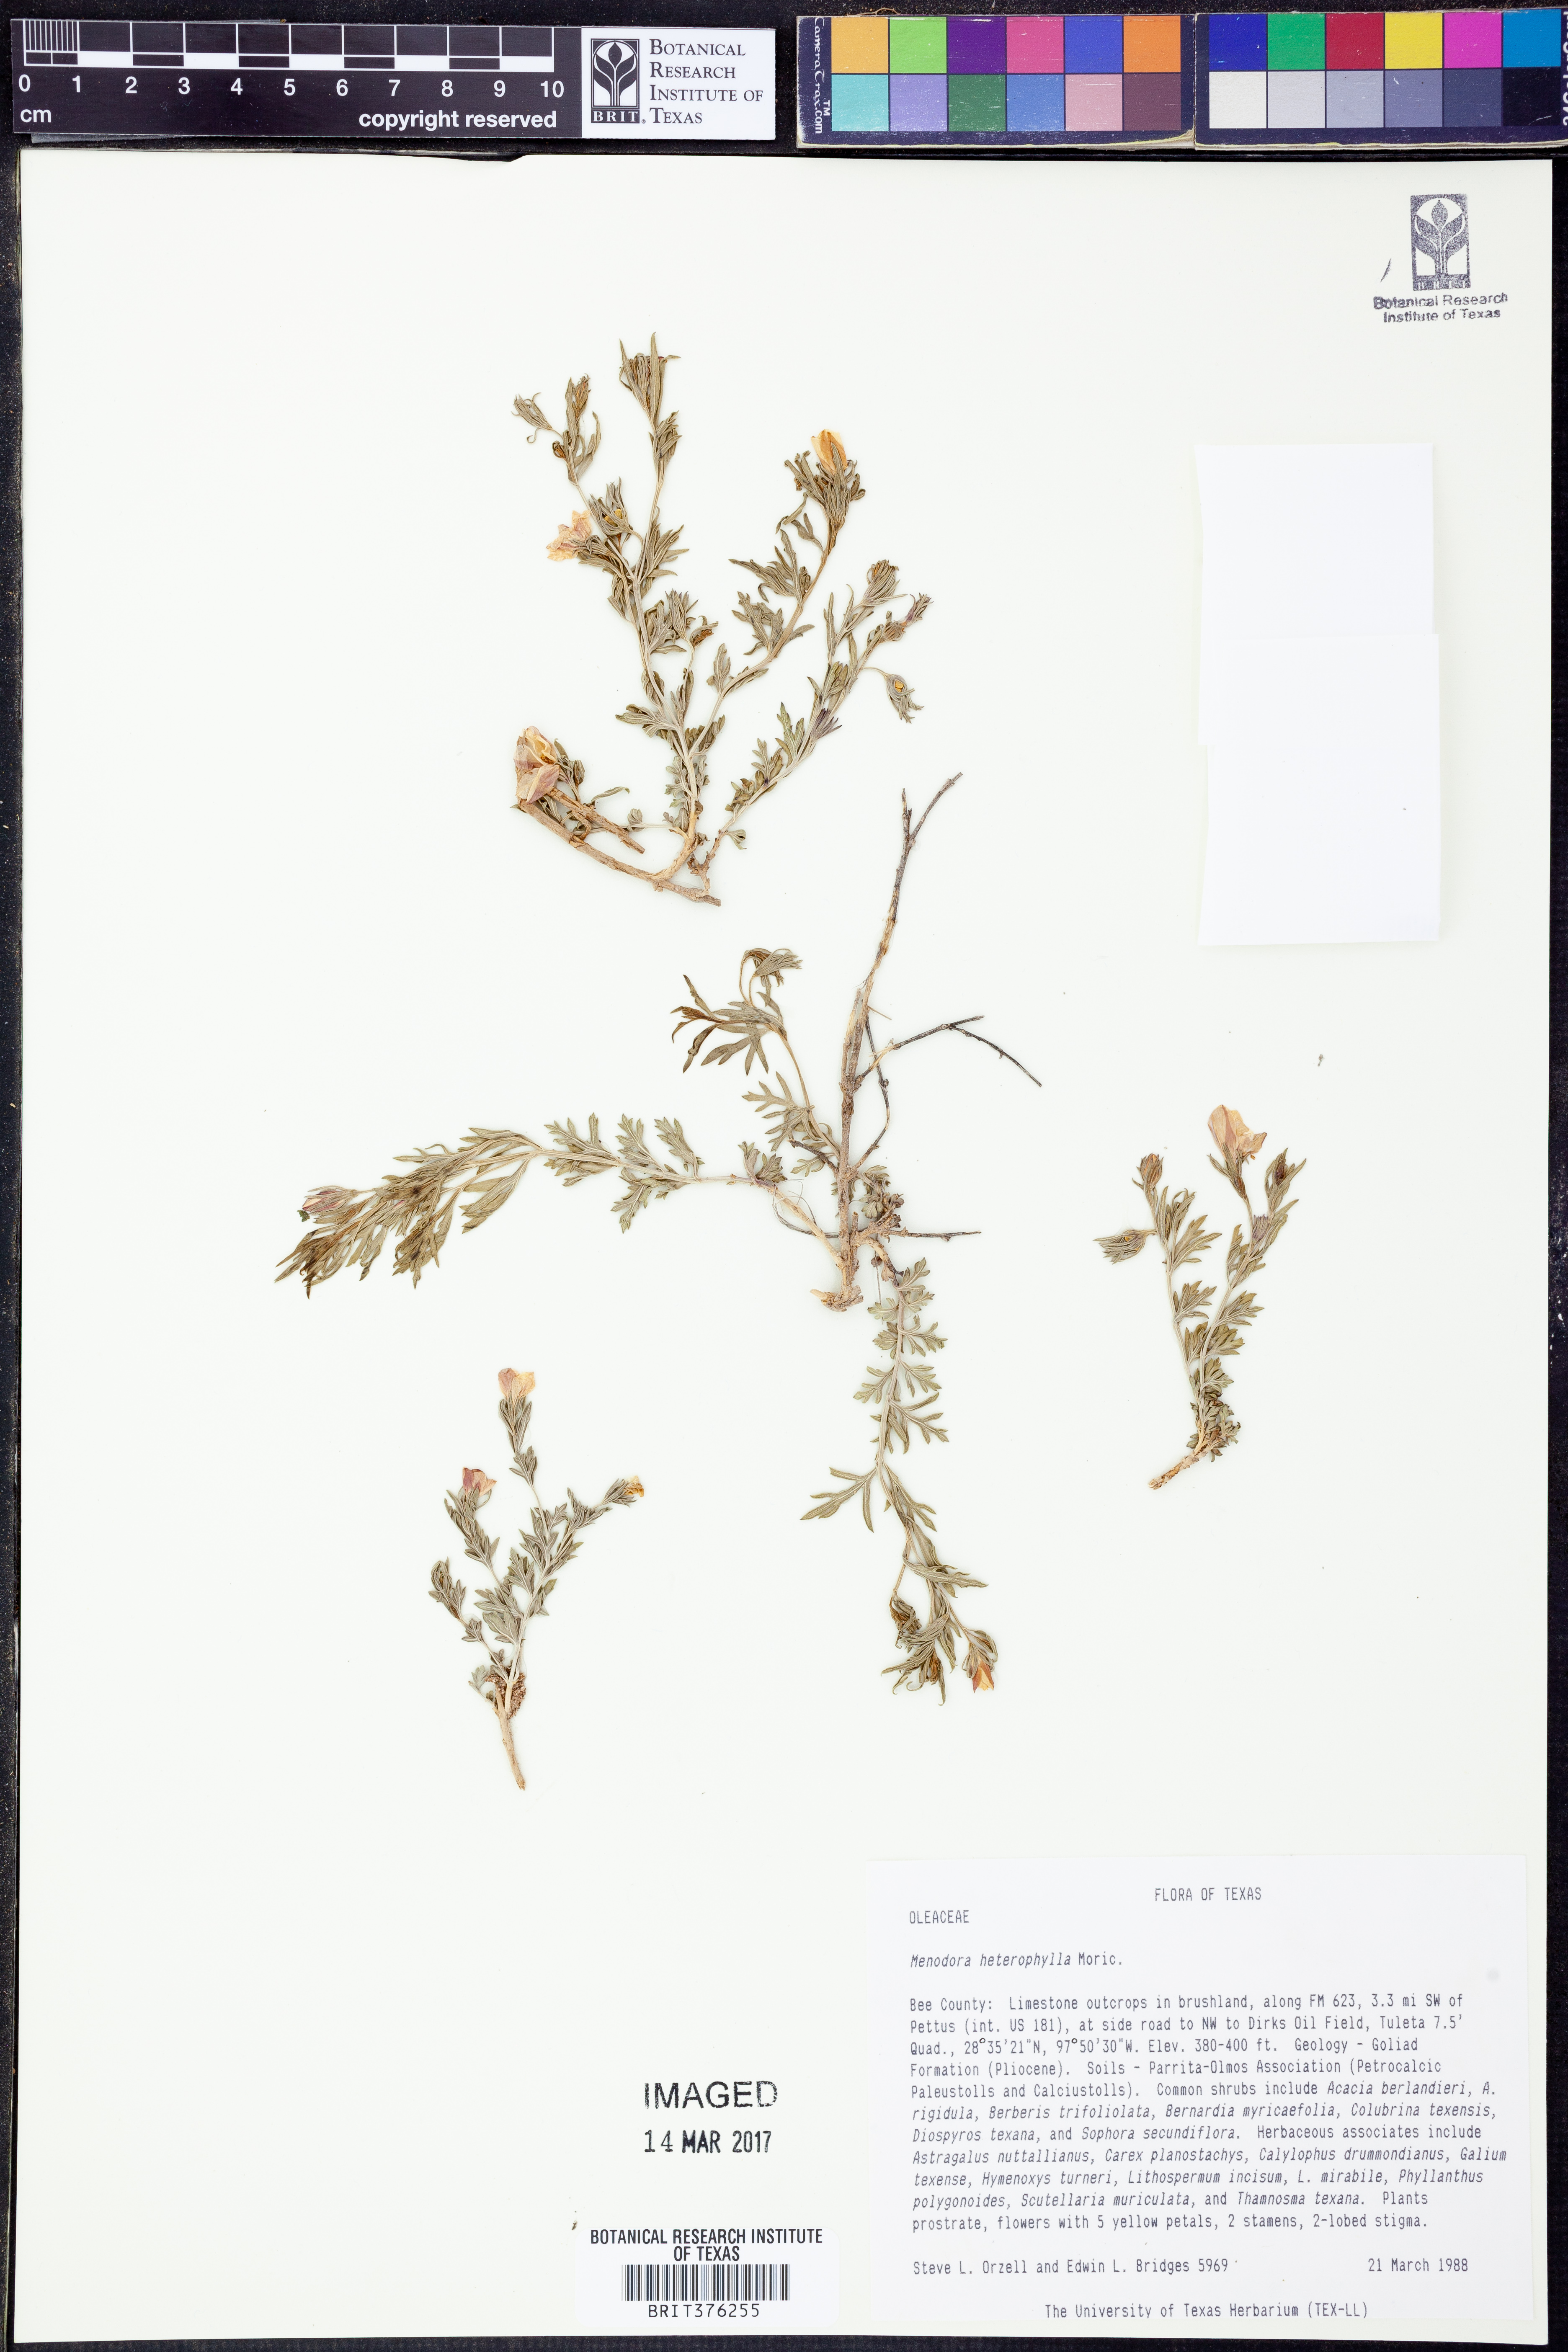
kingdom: Plantae
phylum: Tracheophyta
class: Magnoliopsida
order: Lamiales
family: Oleaceae
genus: Menodora
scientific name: Menodora heterophylla
